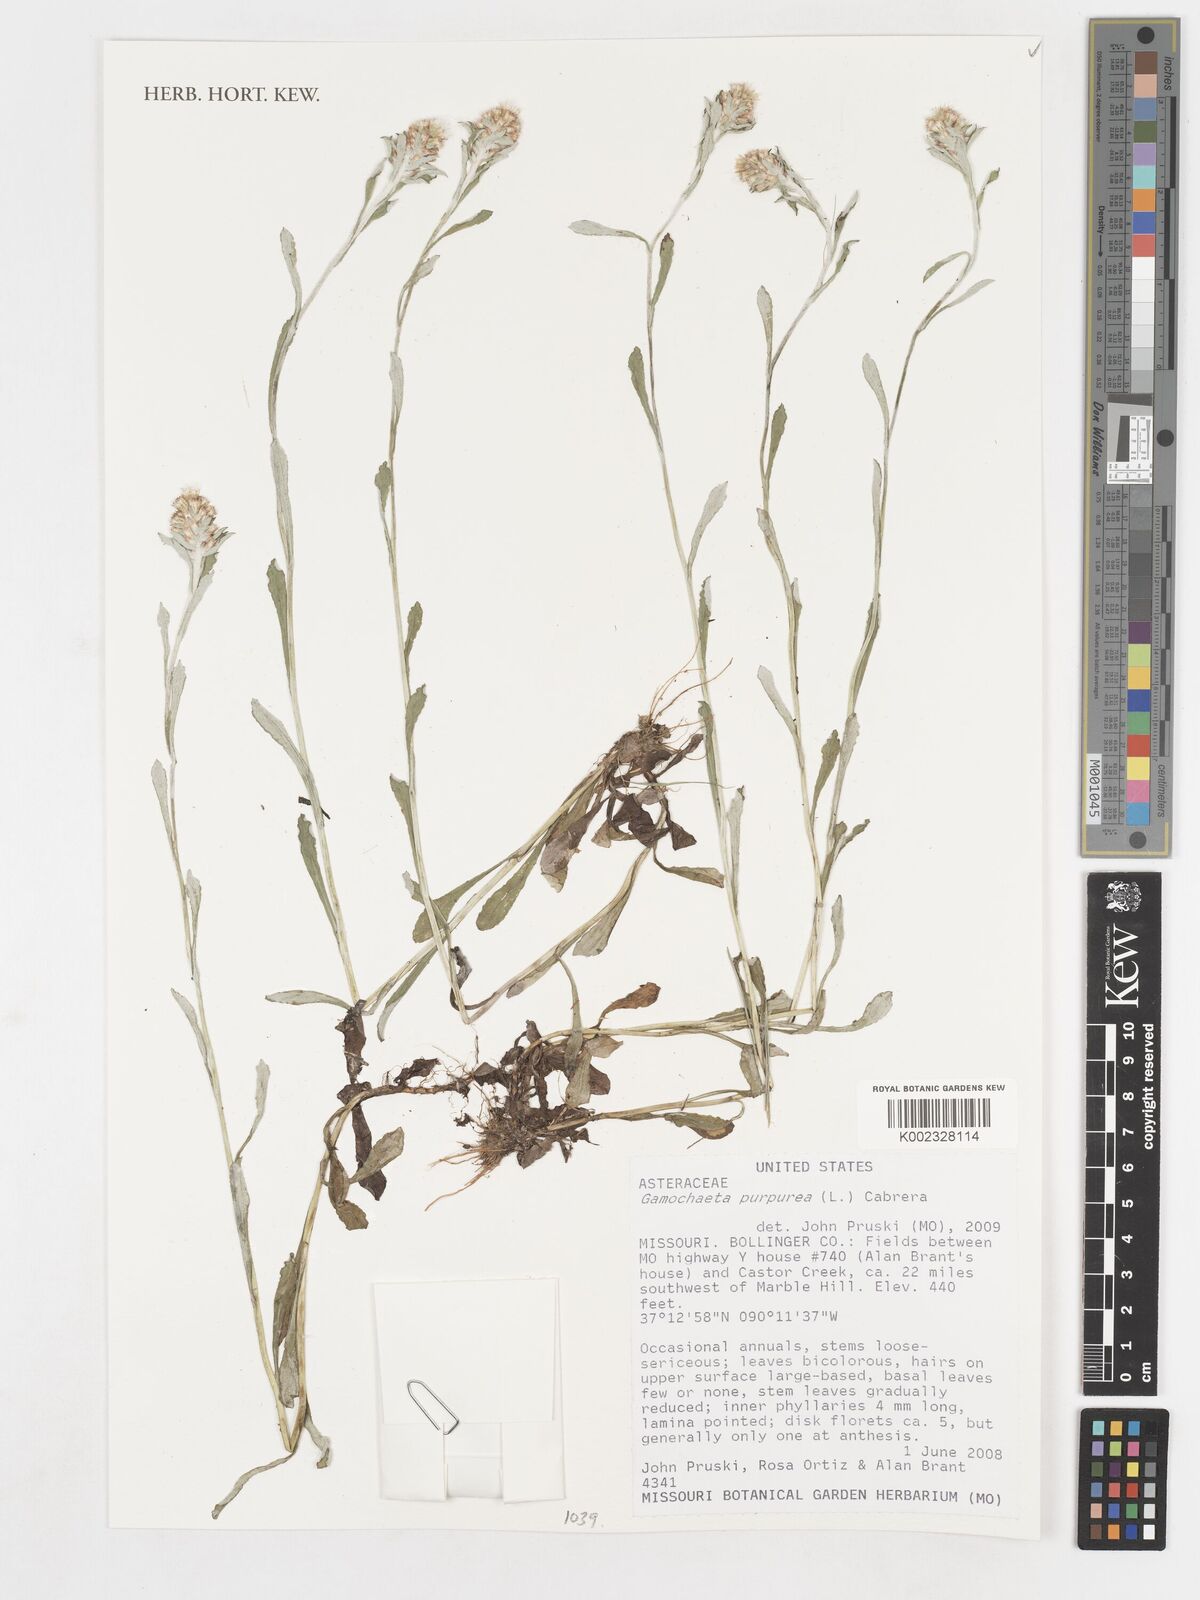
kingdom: Plantae
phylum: Tracheophyta
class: Magnoliopsida
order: Asterales
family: Asteraceae
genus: Gamochaeta
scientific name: Gamochaeta purpurea
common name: Purple cudweed
